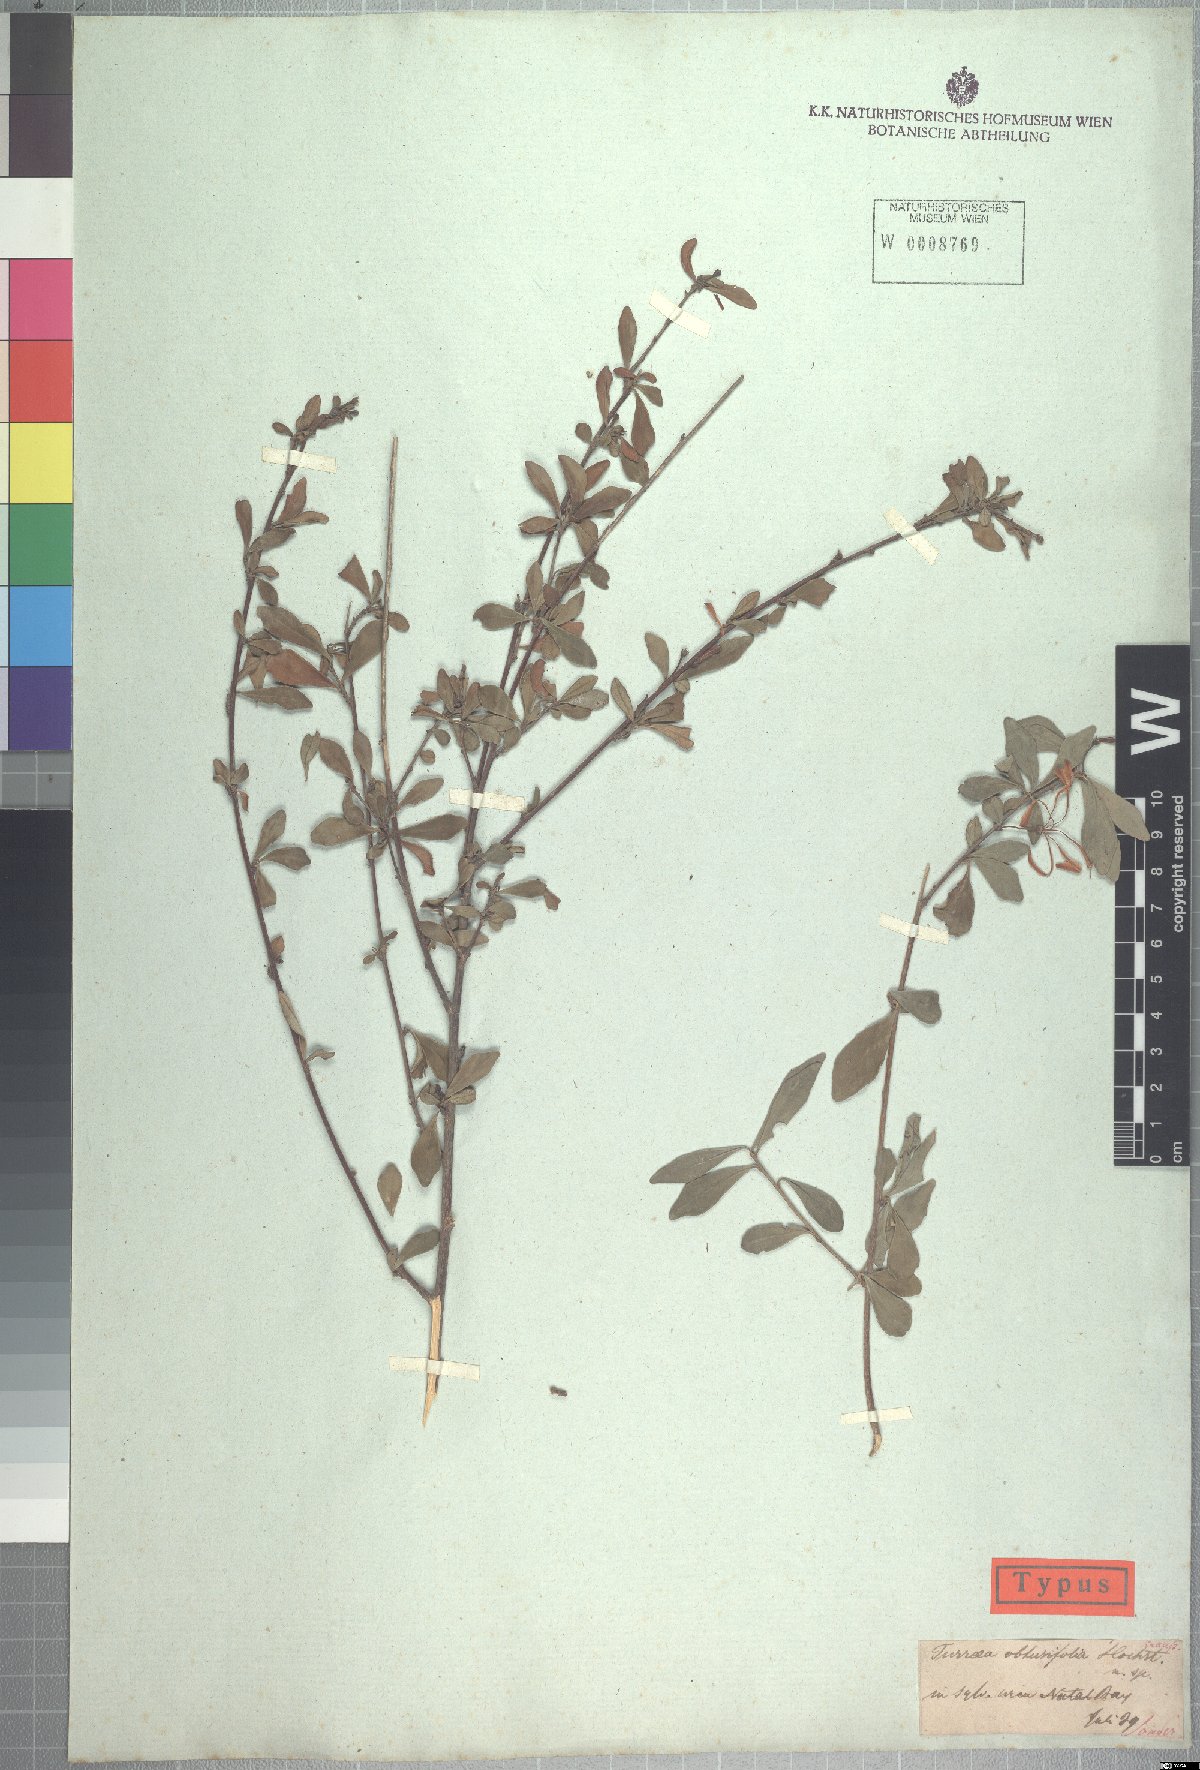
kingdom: Plantae
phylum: Tracheophyta
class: Magnoliopsida
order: Sapindales
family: Meliaceae
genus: Turraea
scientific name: Turraea obtusifolia
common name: Small honeysuckle tree
